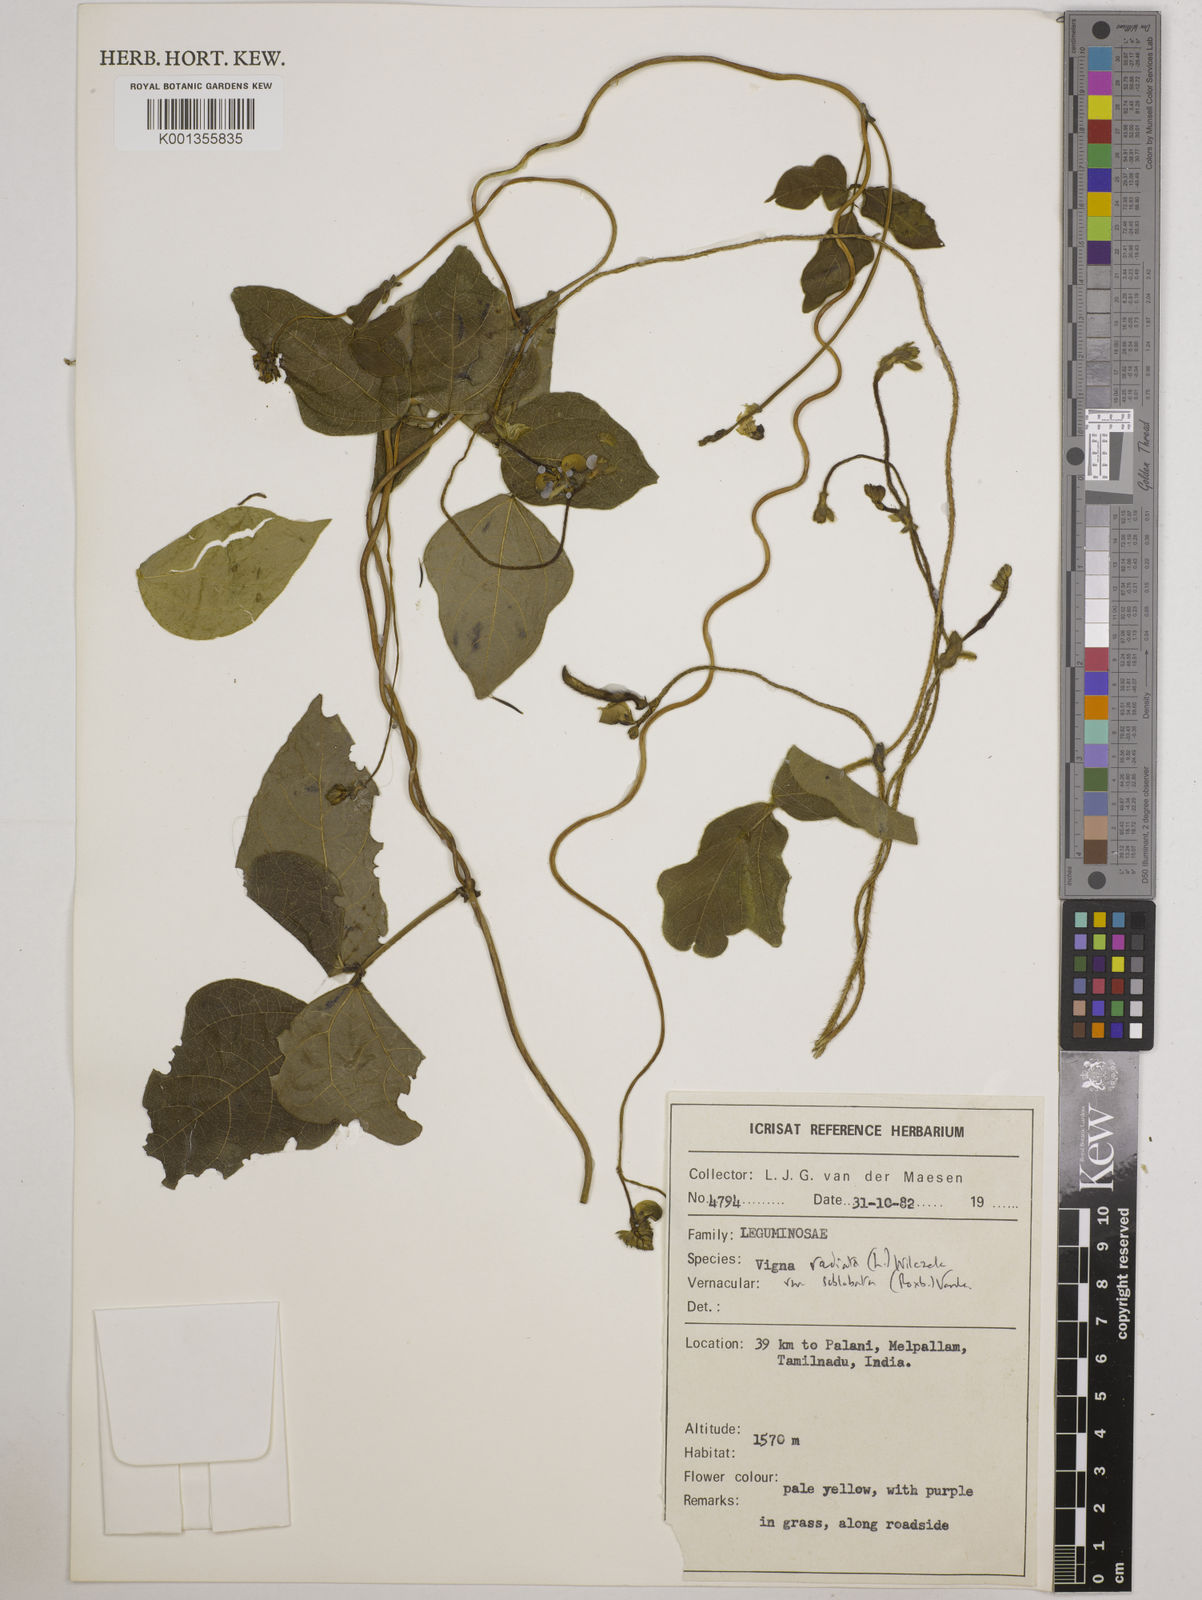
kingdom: Plantae
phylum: Tracheophyta
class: Magnoliopsida
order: Fabales
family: Fabaceae
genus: Vigna
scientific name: Vigna radiata
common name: Mung-bean
